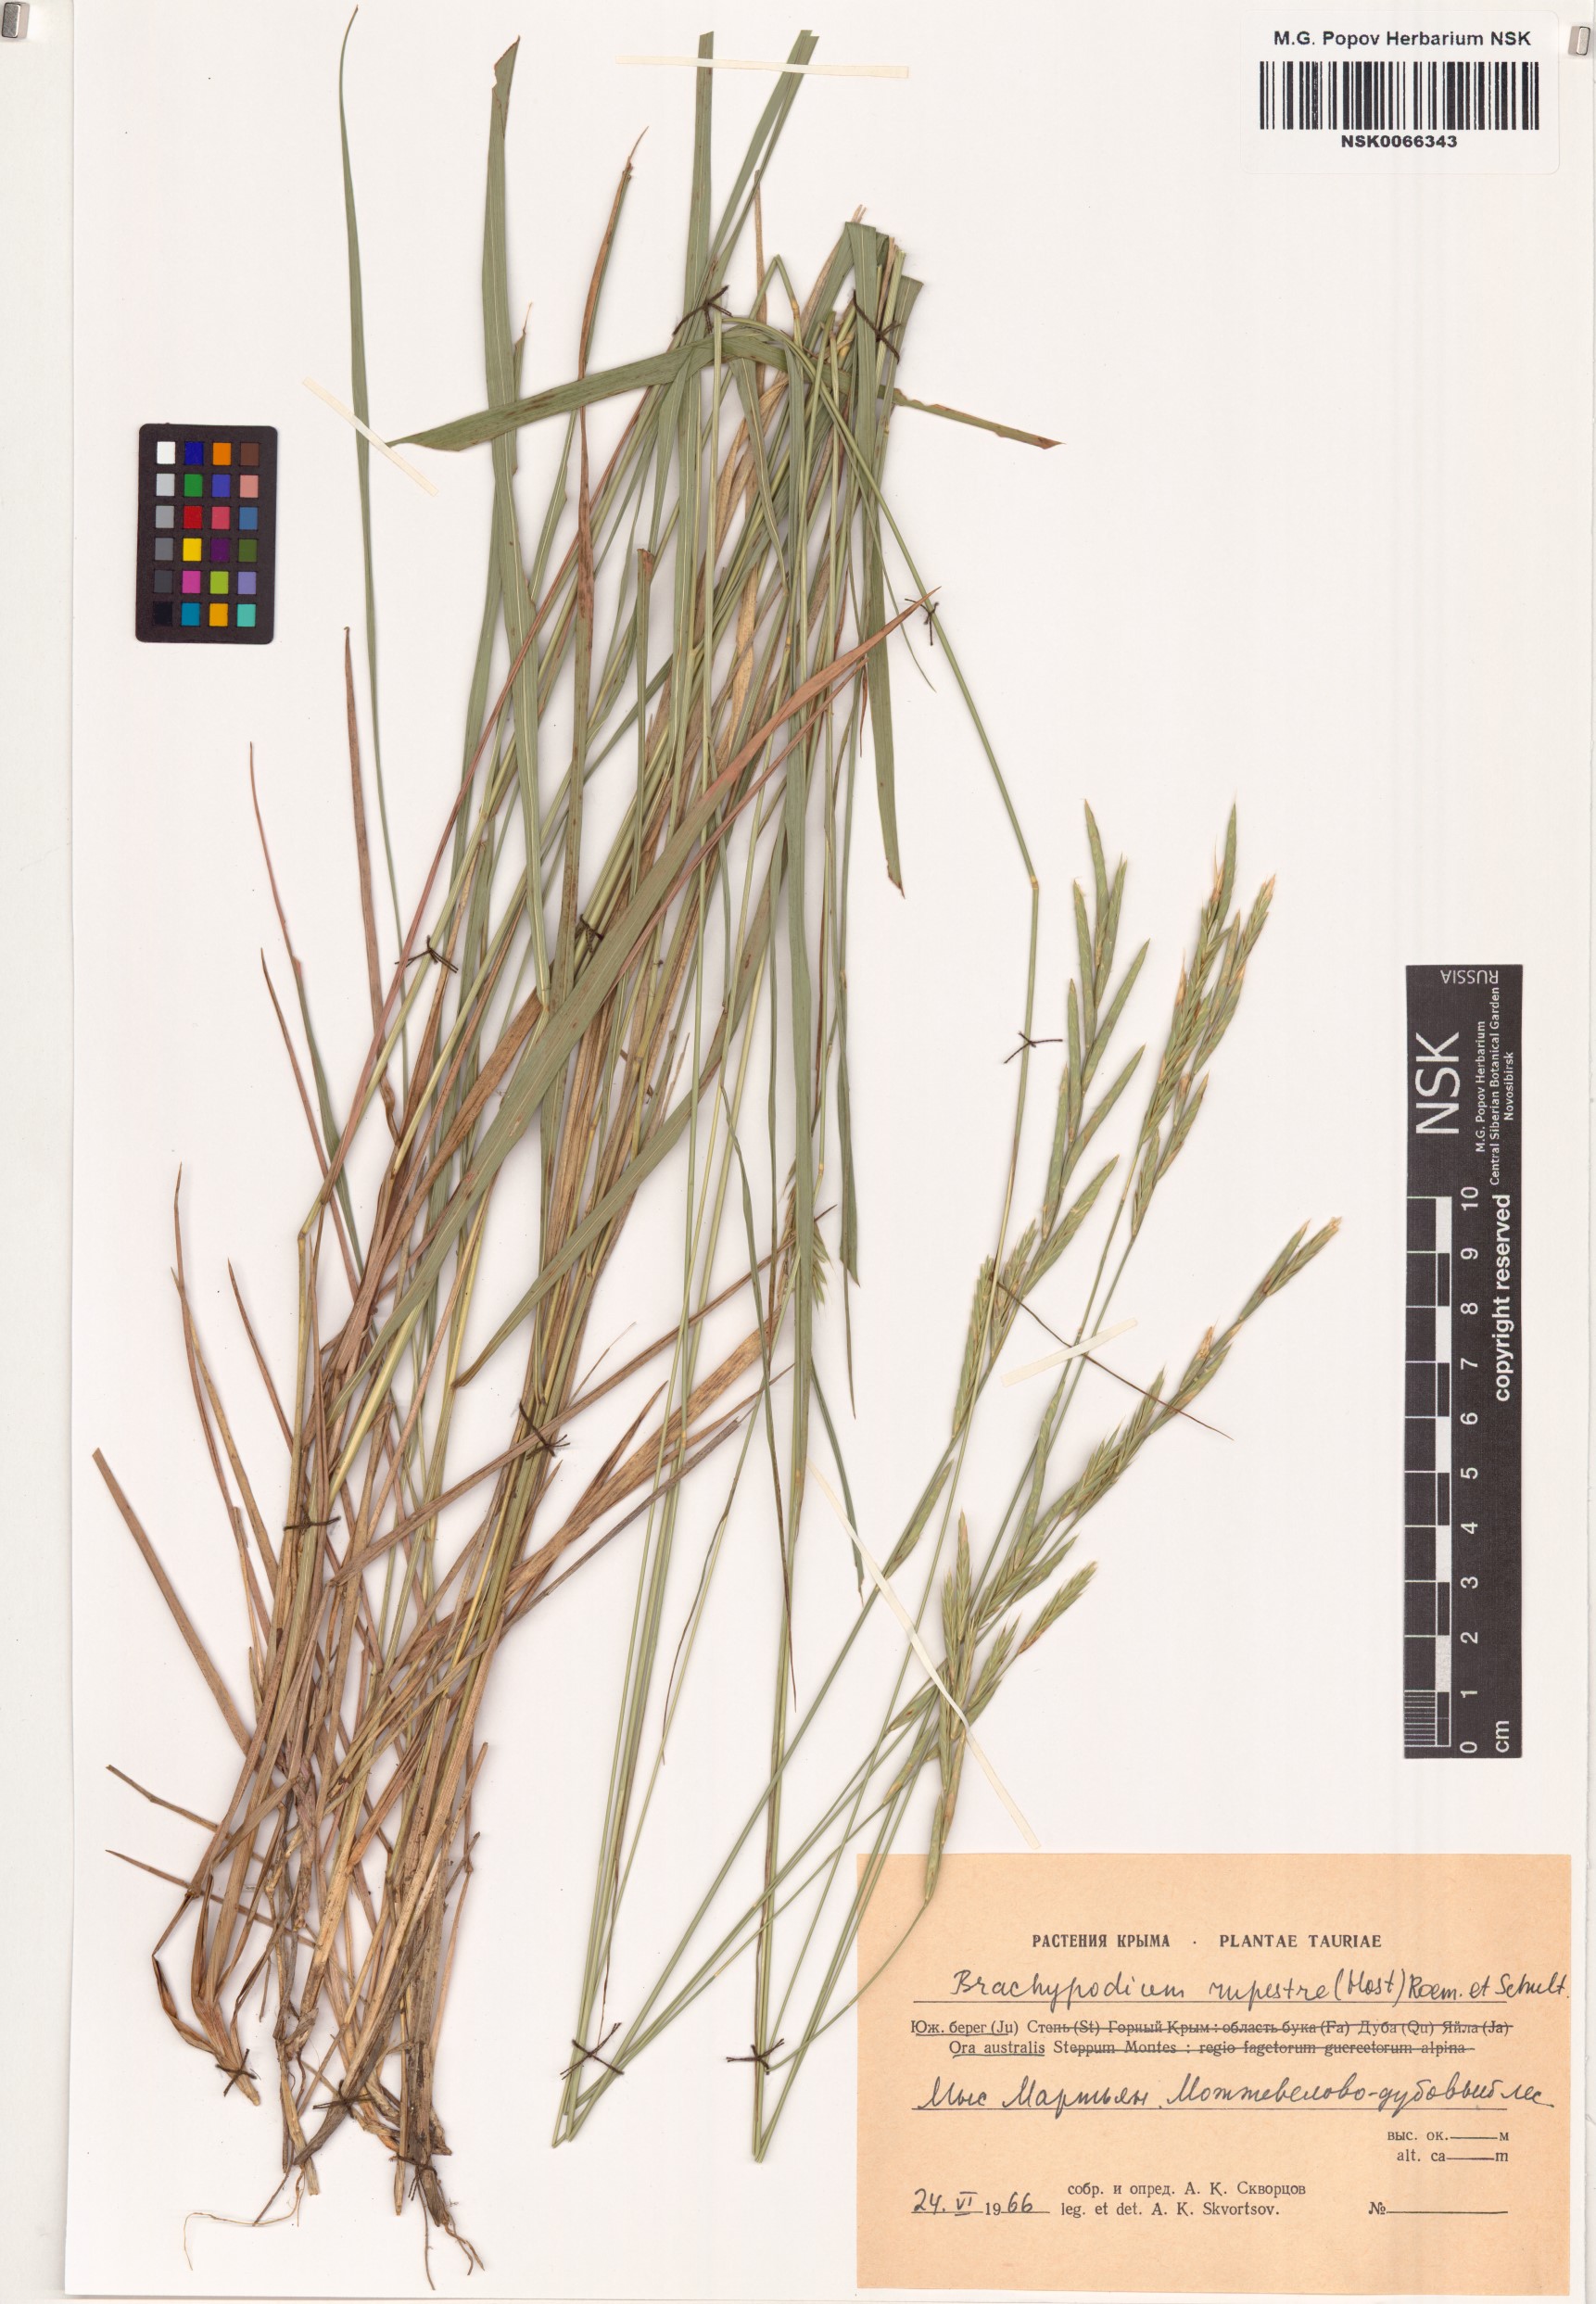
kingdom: Plantae
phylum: Tracheophyta
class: Liliopsida
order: Poales
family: Poaceae
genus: Brachypodium
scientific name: Brachypodium pinnatum
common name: Tor grass
